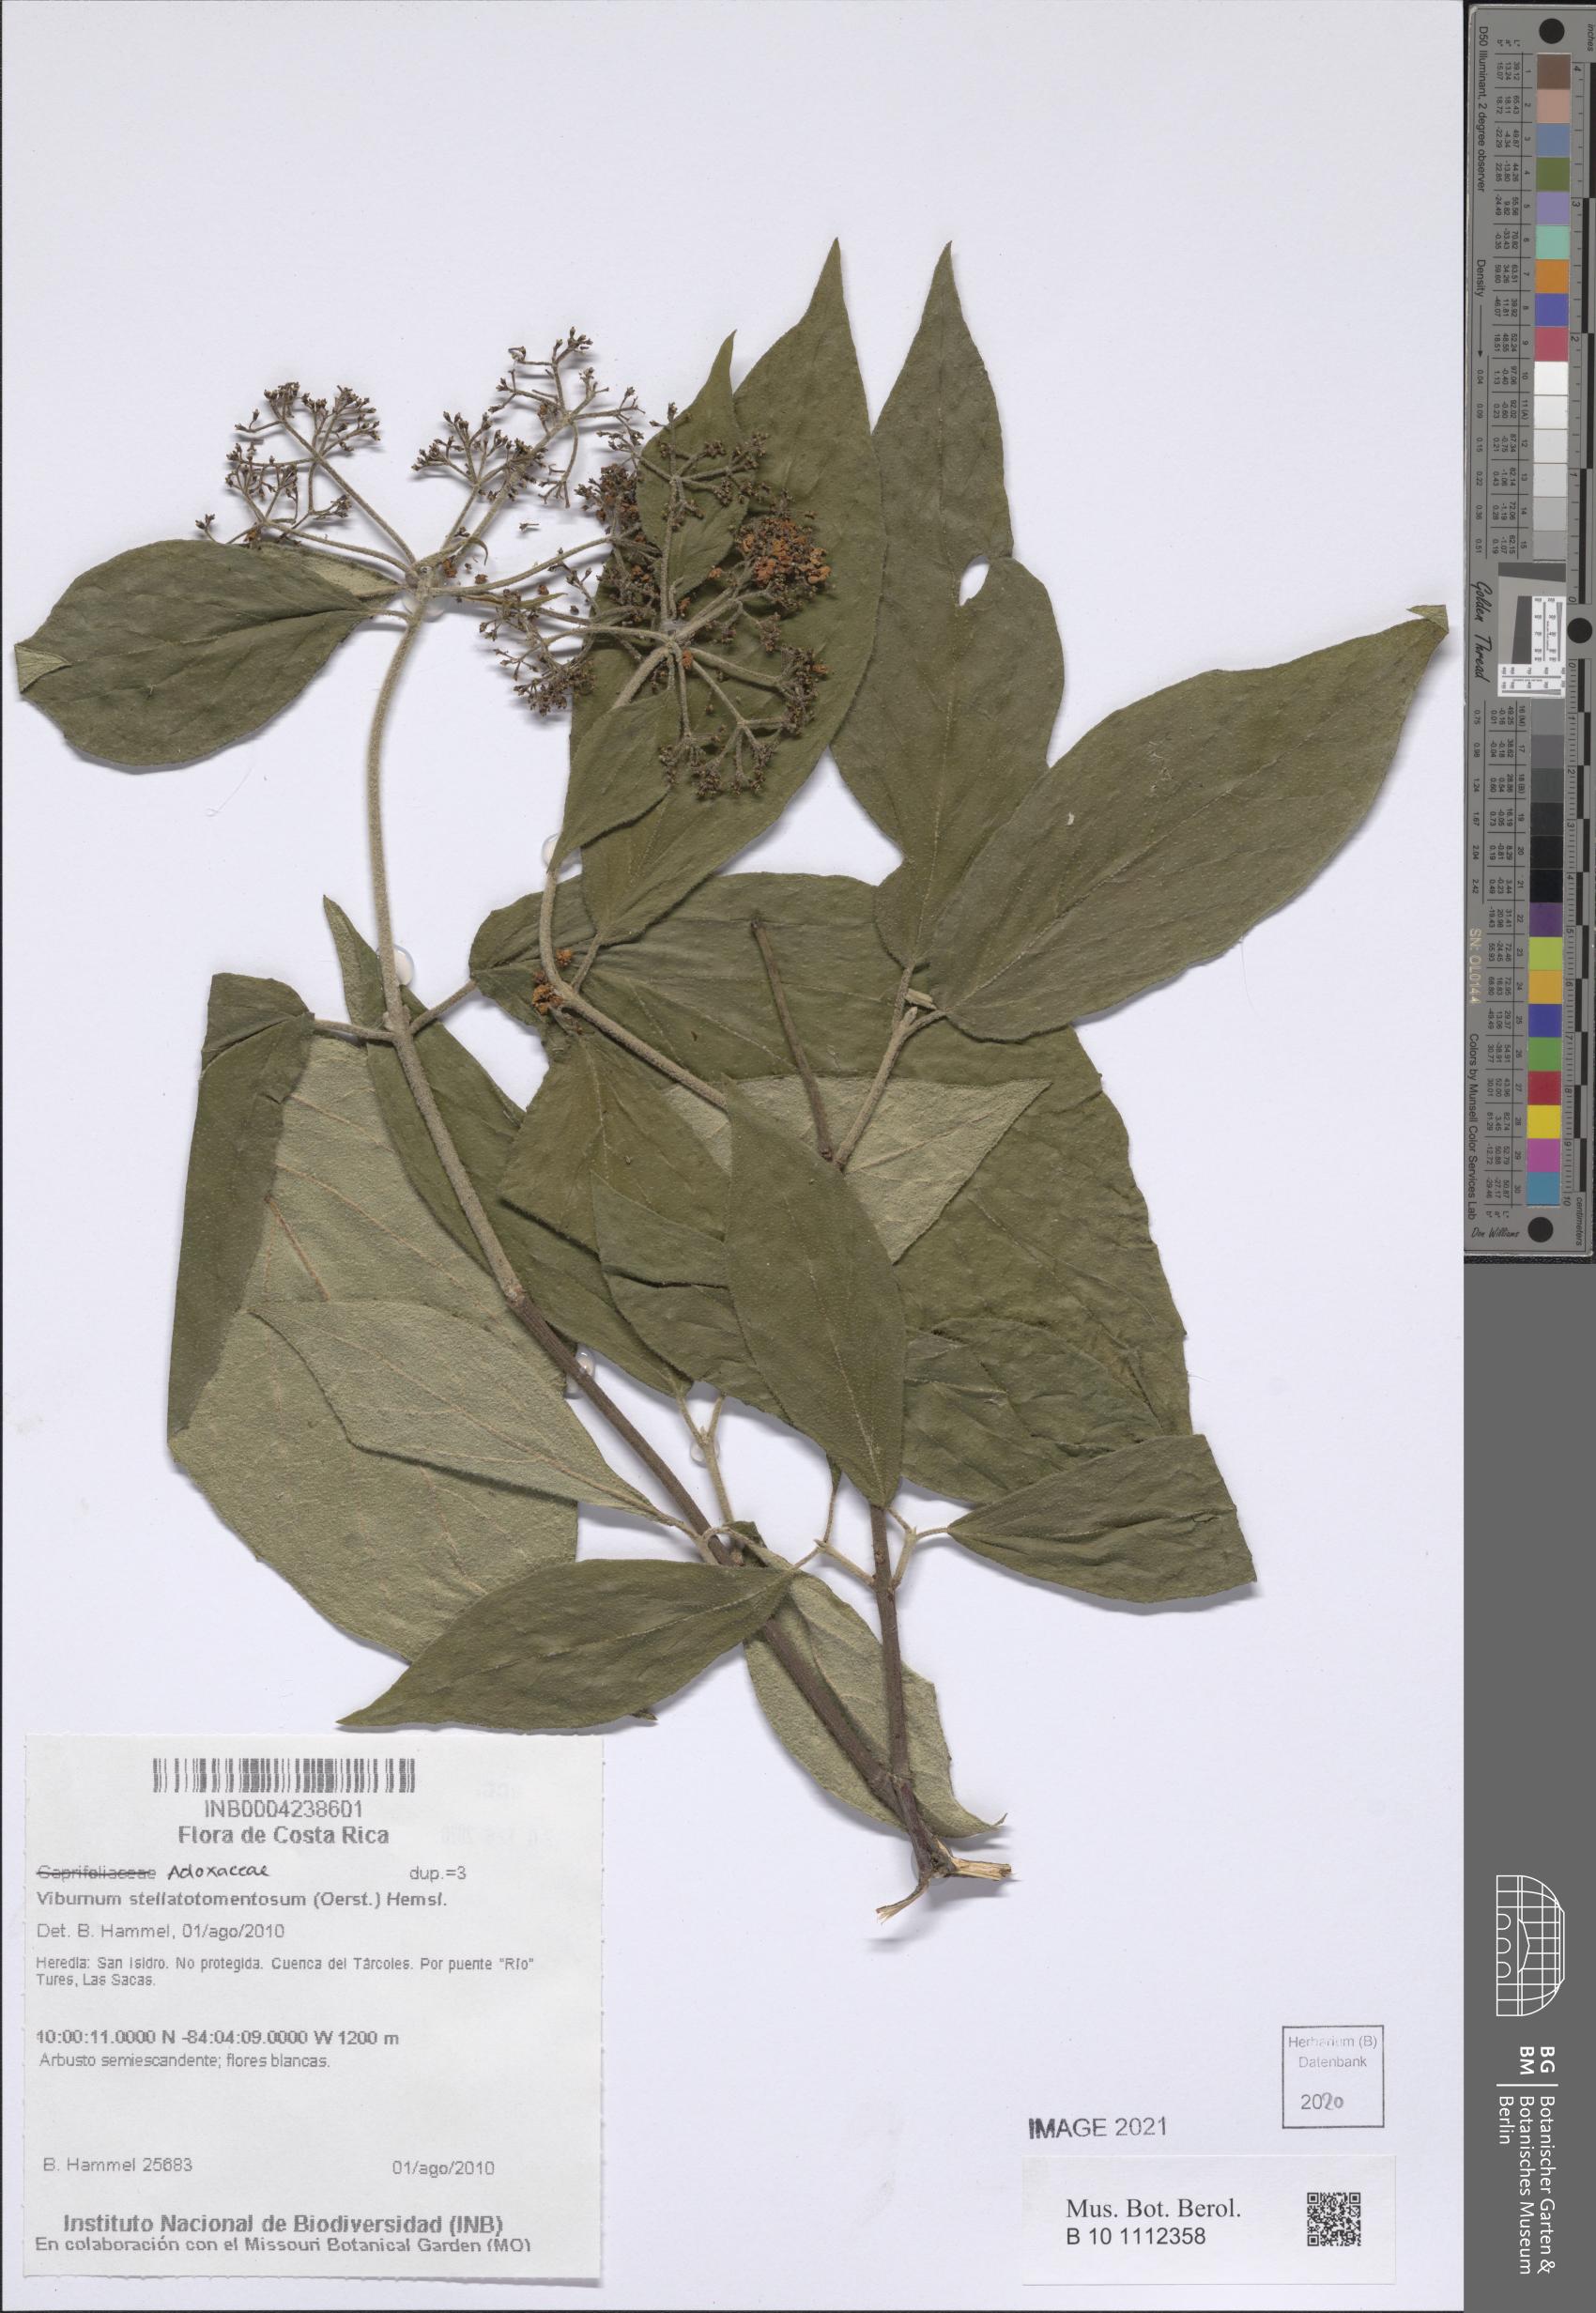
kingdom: Plantae
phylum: Tracheophyta
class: Magnoliopsida
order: Dipsacales
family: Viburnaceae
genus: Viburnum
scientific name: Viburnum stellatotomentosum
